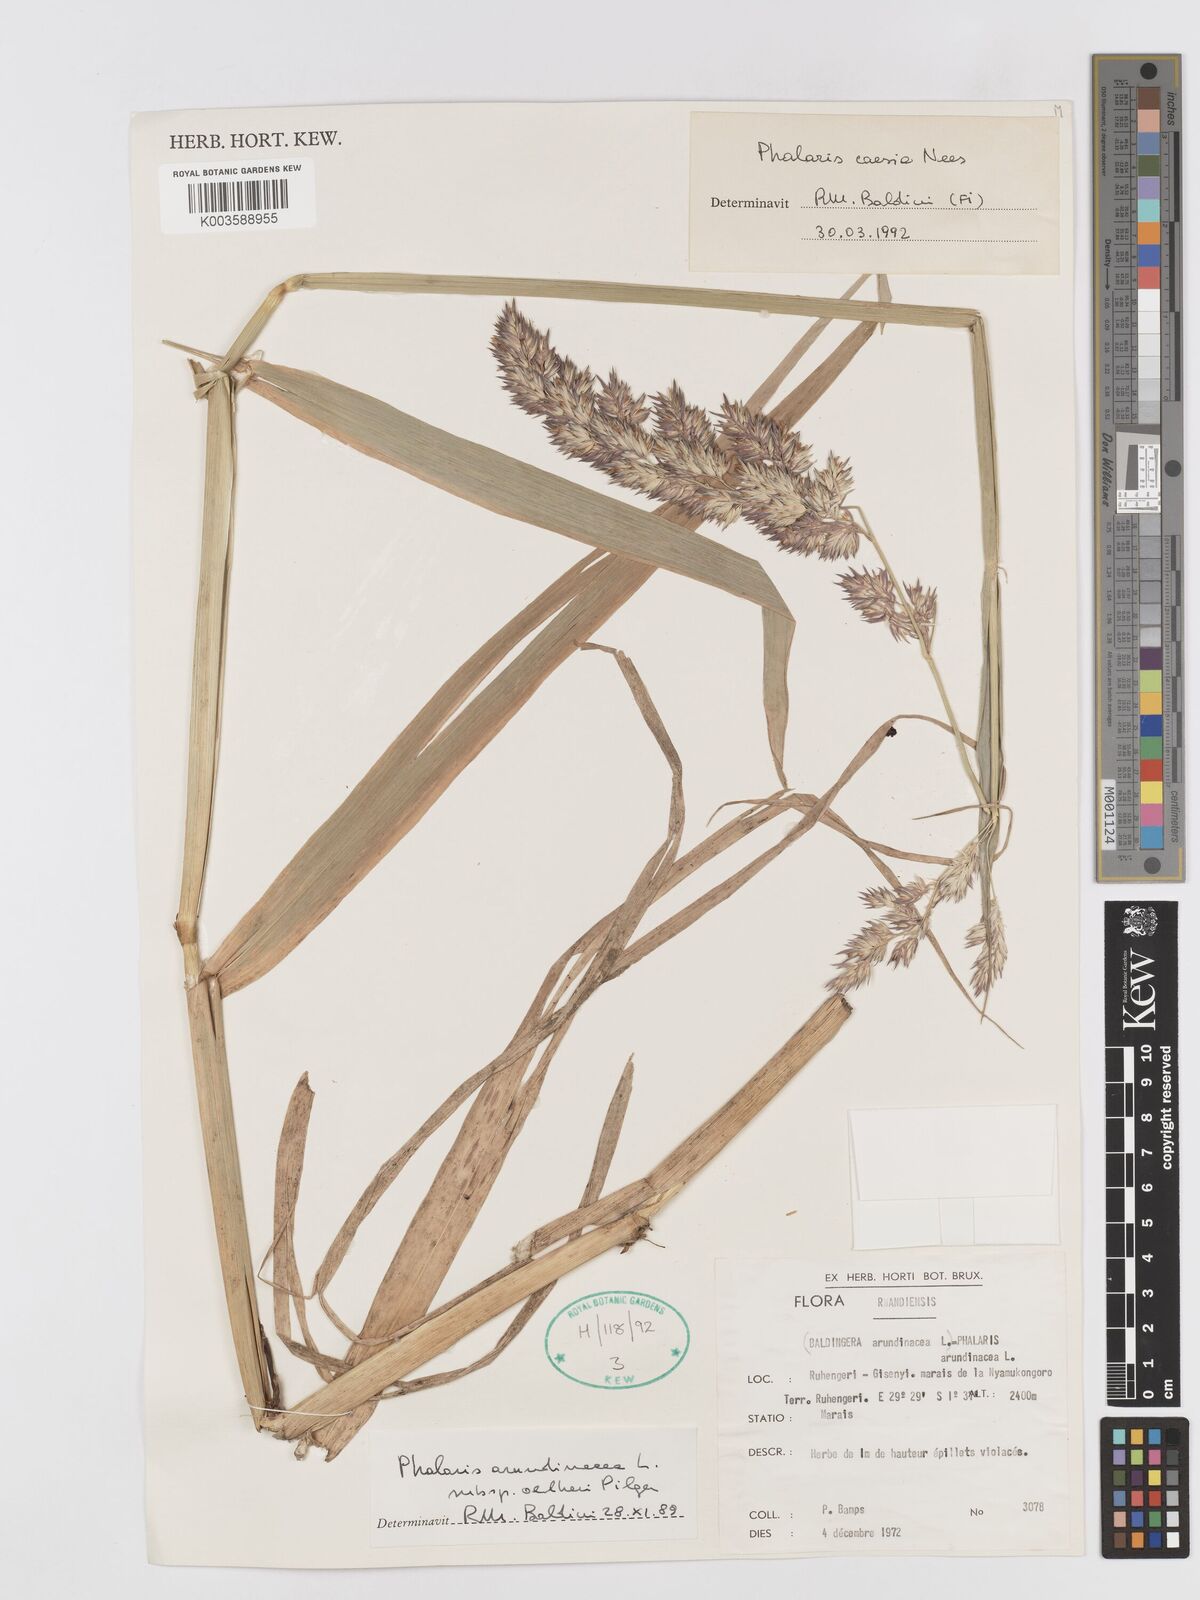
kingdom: Plantae
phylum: Tracheophyta
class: Liliopsida
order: Poales
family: Poaceae
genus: Phalaris
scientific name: Phalaris arundinacea
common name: Reed canary-grass
